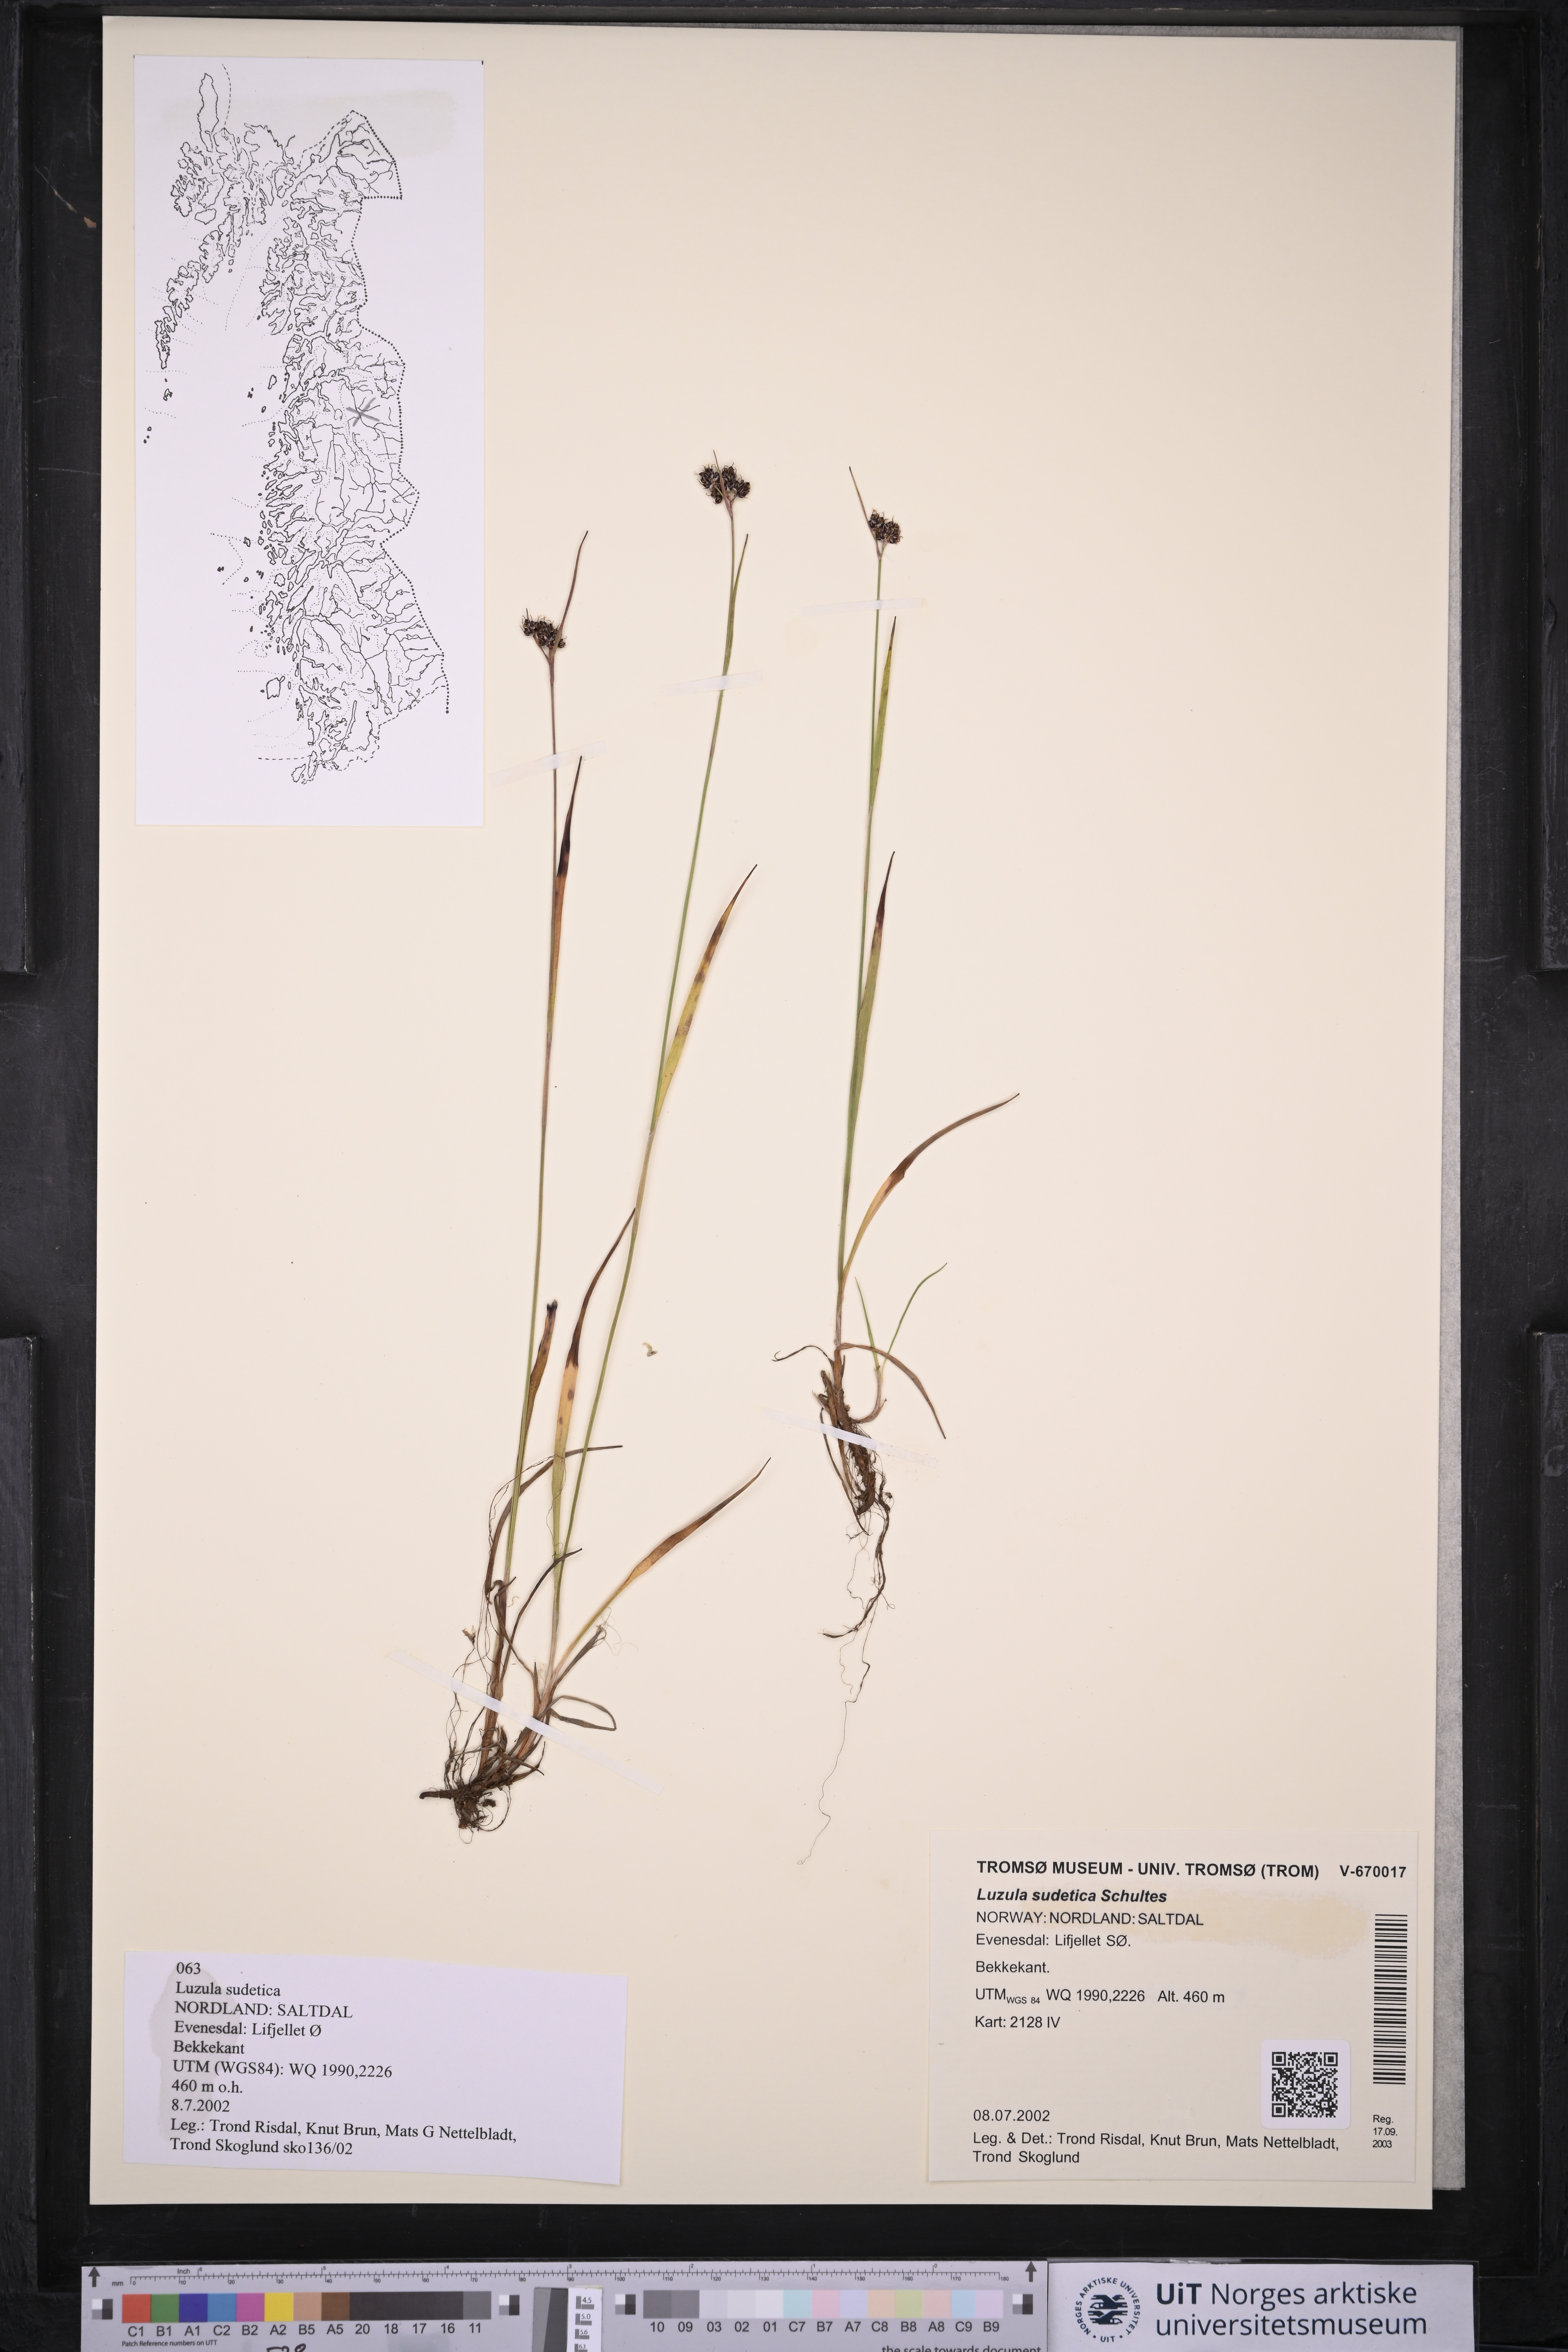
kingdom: Plantae
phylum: Tracheophyta
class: Liliopsida
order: Poales
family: Juncaceae
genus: Luzula
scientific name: Luzula sudetica
